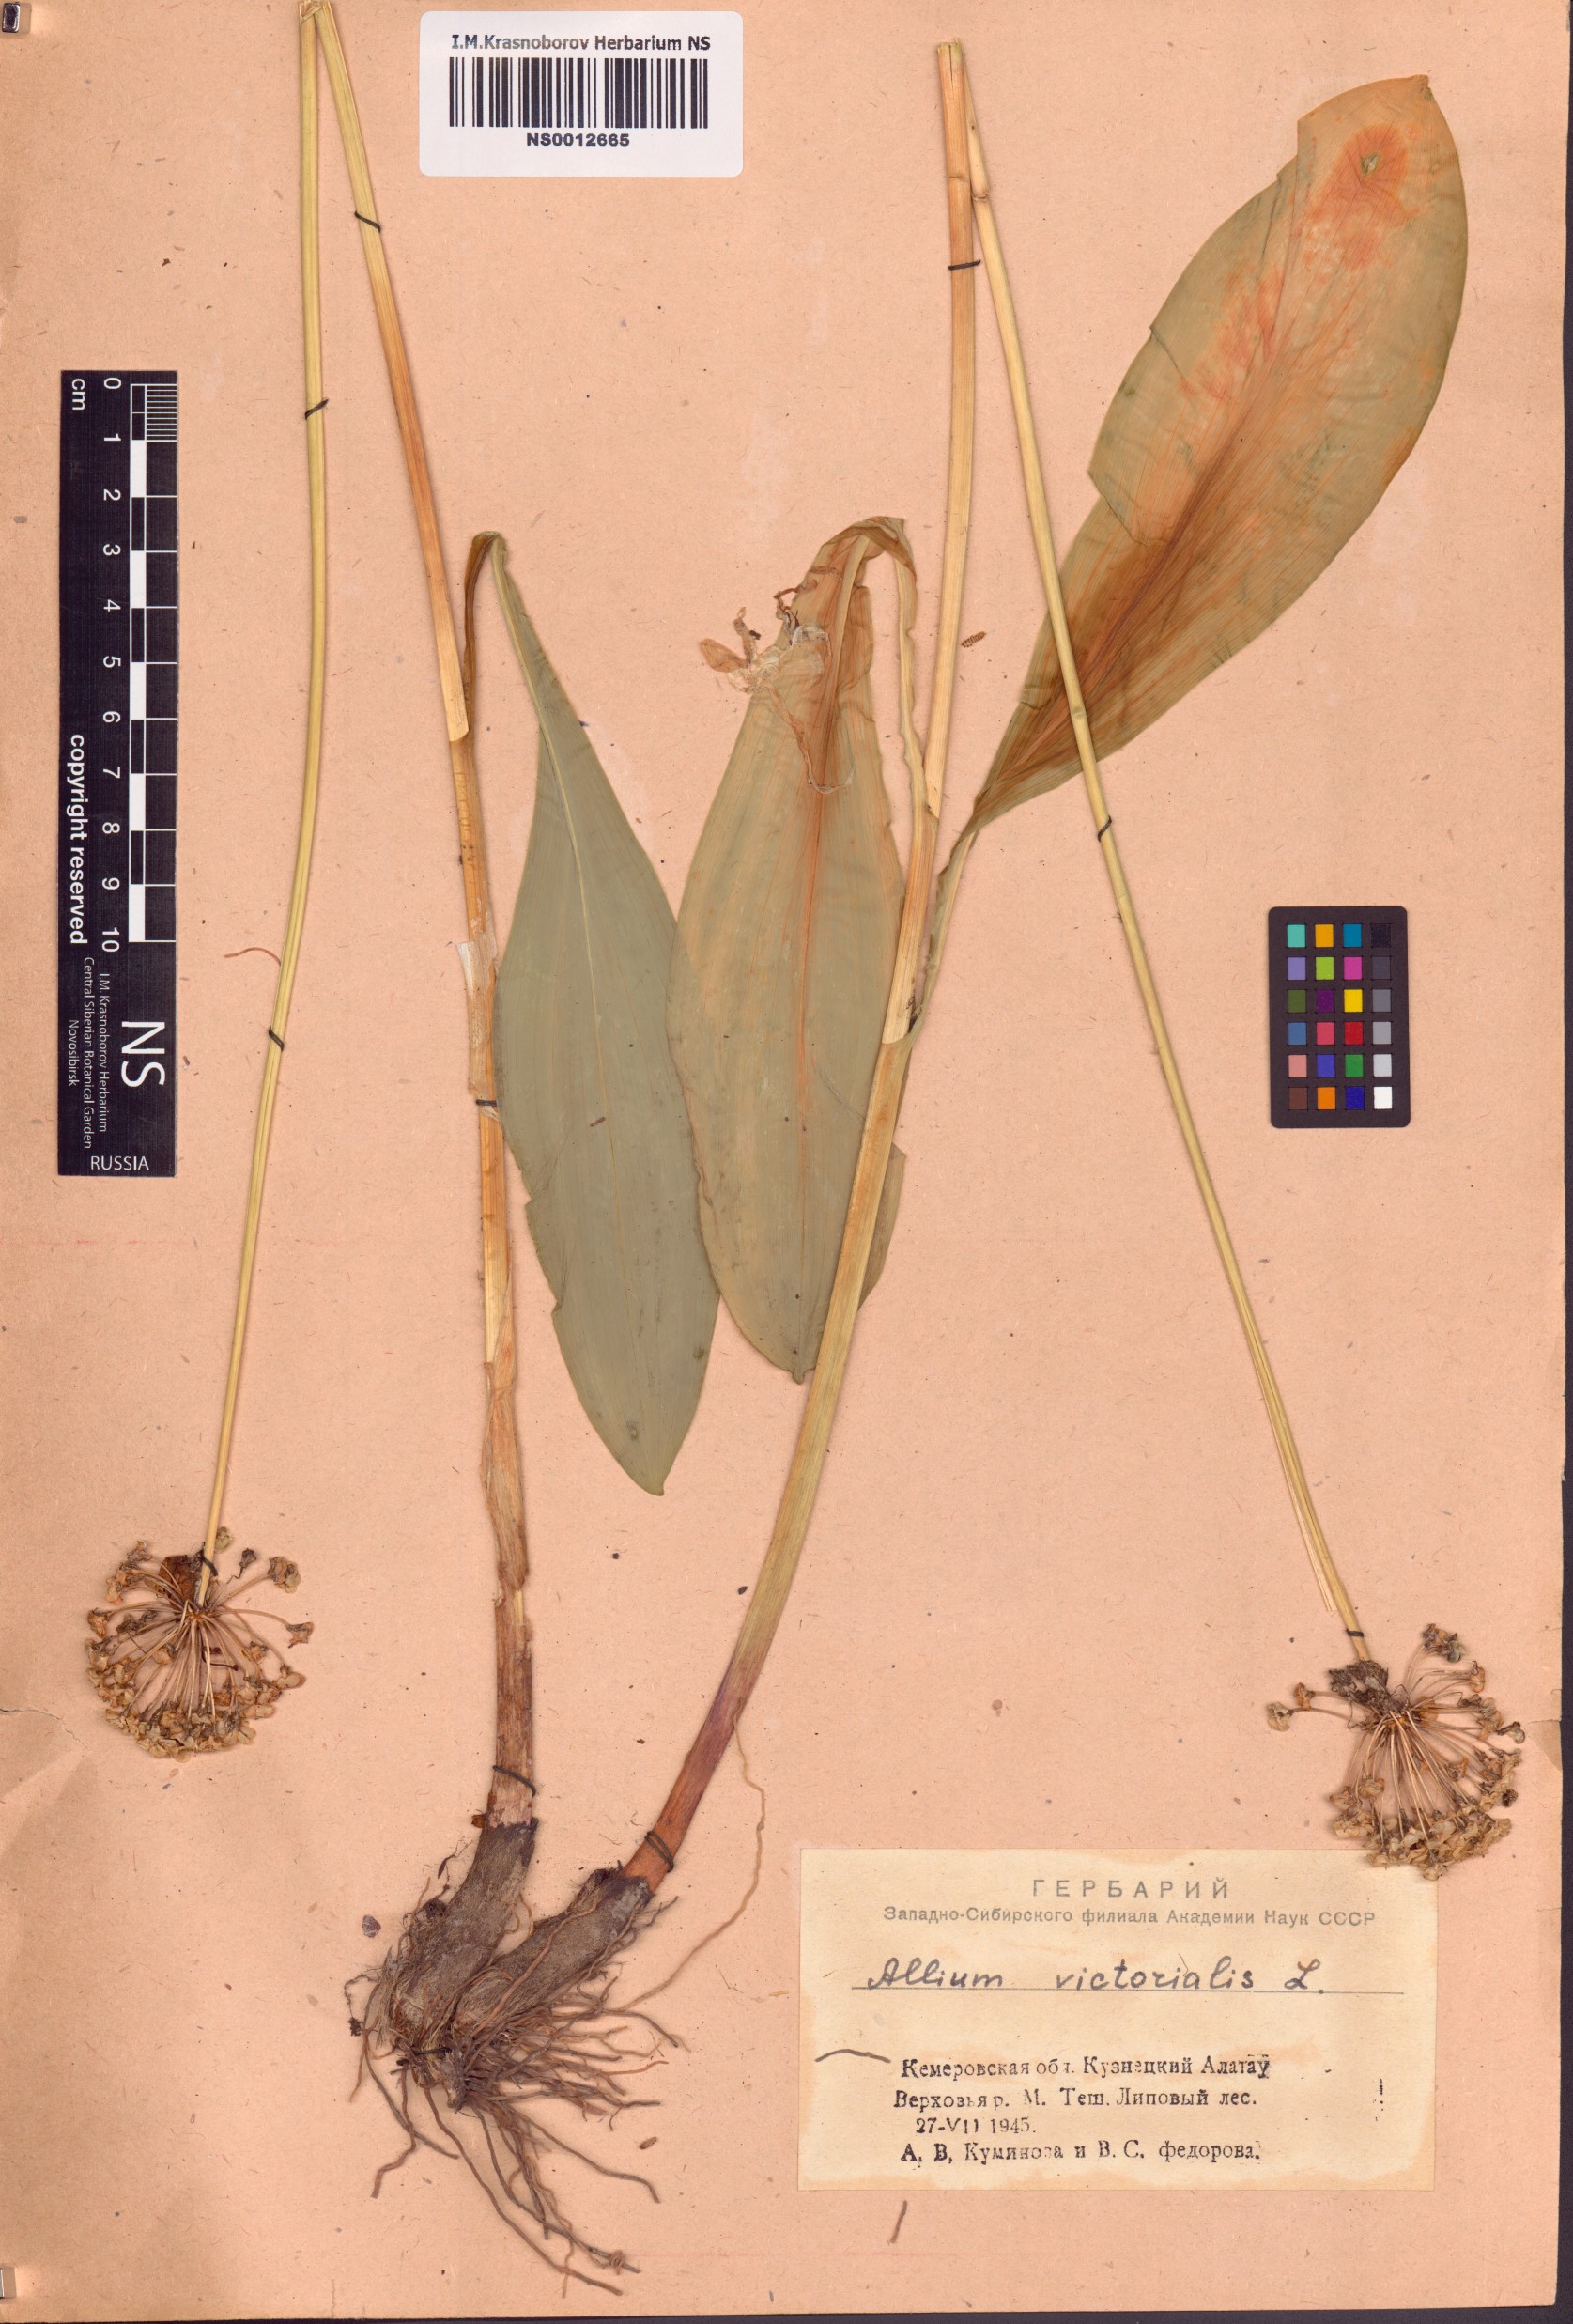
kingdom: Plantae
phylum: Tracheophyta
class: Liliopsida
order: Asparagales
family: Amaryllidaceae
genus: Allium
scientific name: Allium microdictyon
